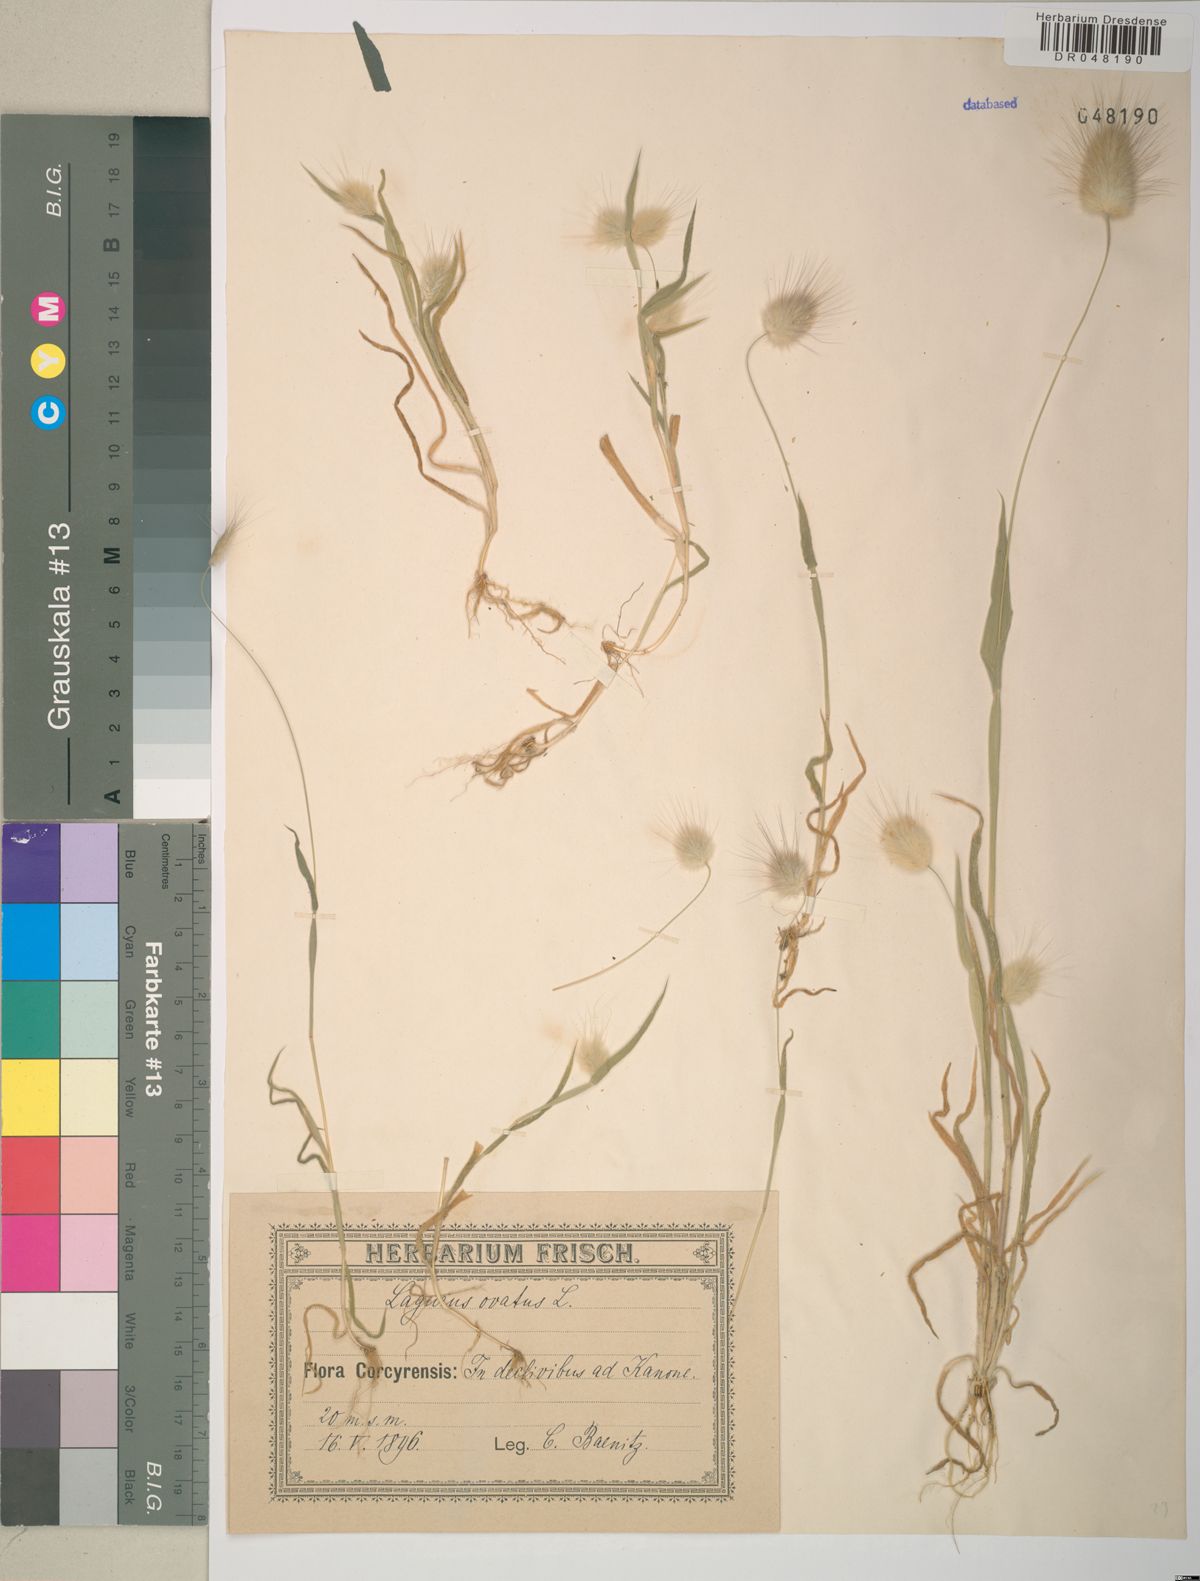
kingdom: Plantae
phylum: Tracheophyta
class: Liliopsida
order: Poales
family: Poaceae
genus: Lagurus
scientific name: Lagurus ovatus
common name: Hare's-tail
